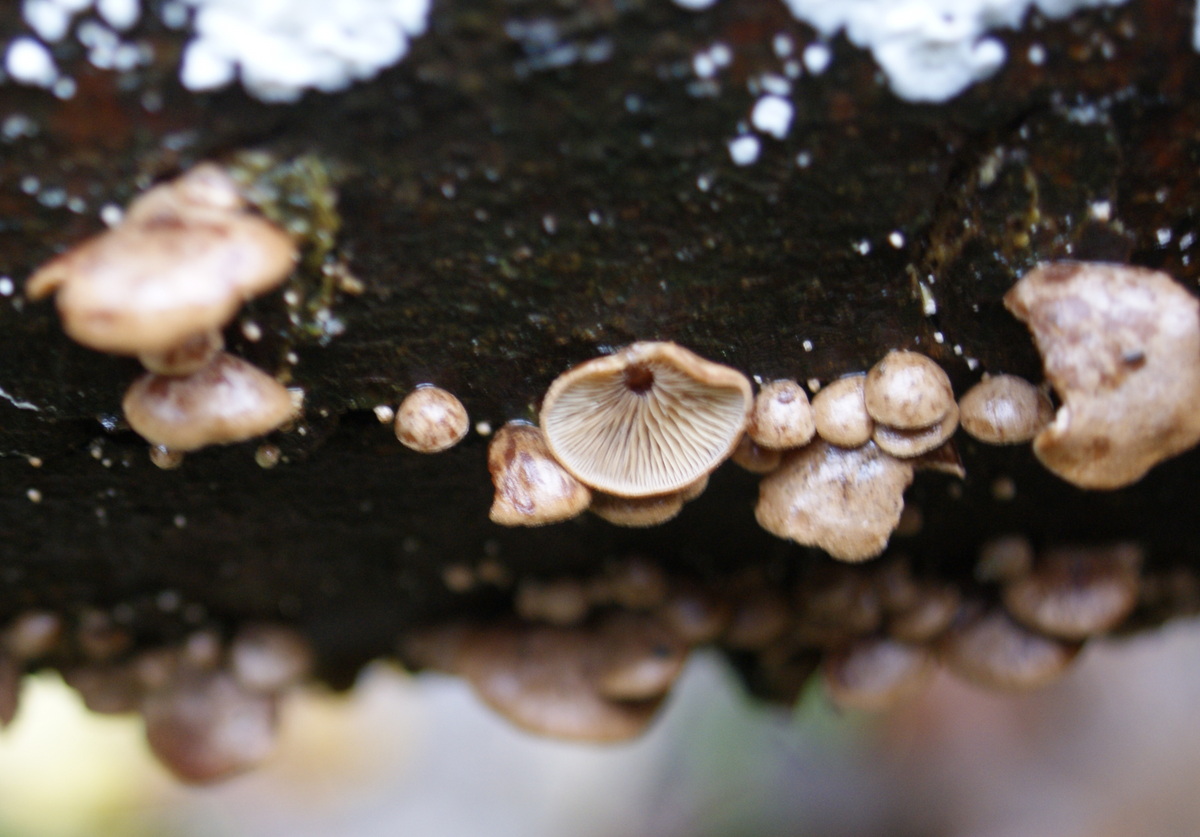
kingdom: Fungi
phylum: Basidiomycota
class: Agaricomycetes
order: Agaricales
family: Strophariaceae
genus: Deconica
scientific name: Deconica horizontalis
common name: ved-stråhat
